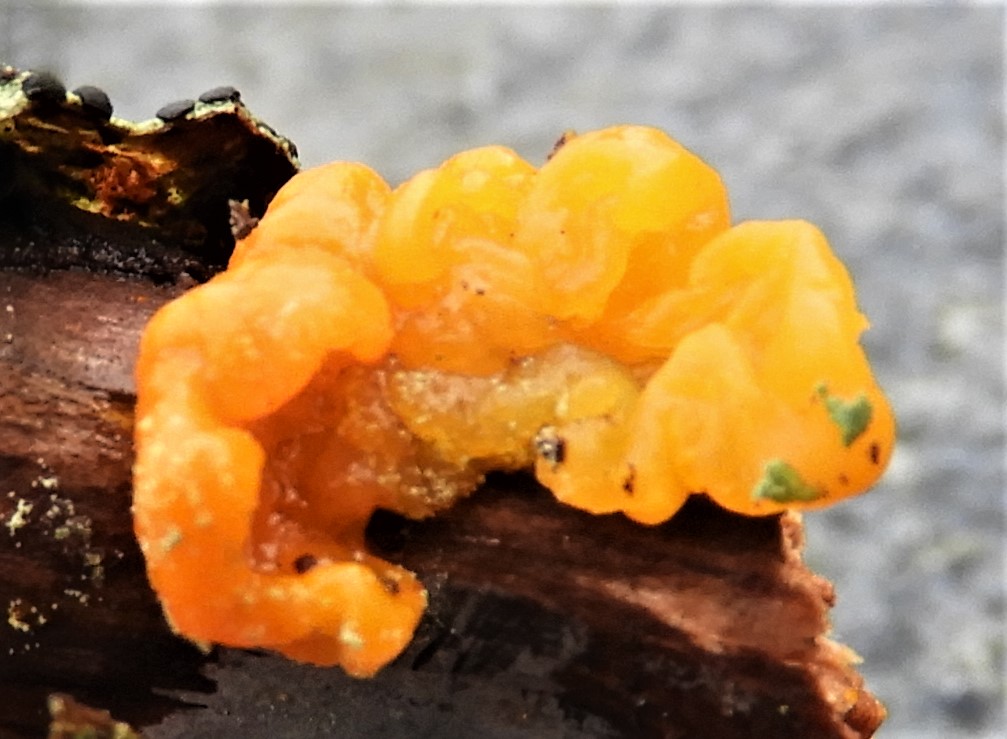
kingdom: Fungi
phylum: Basidiomycota
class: Tremellomycetes
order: Tremellales
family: Tremellaceae
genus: Tremella
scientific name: Tremella mesenterica
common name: gul bævresvamp
